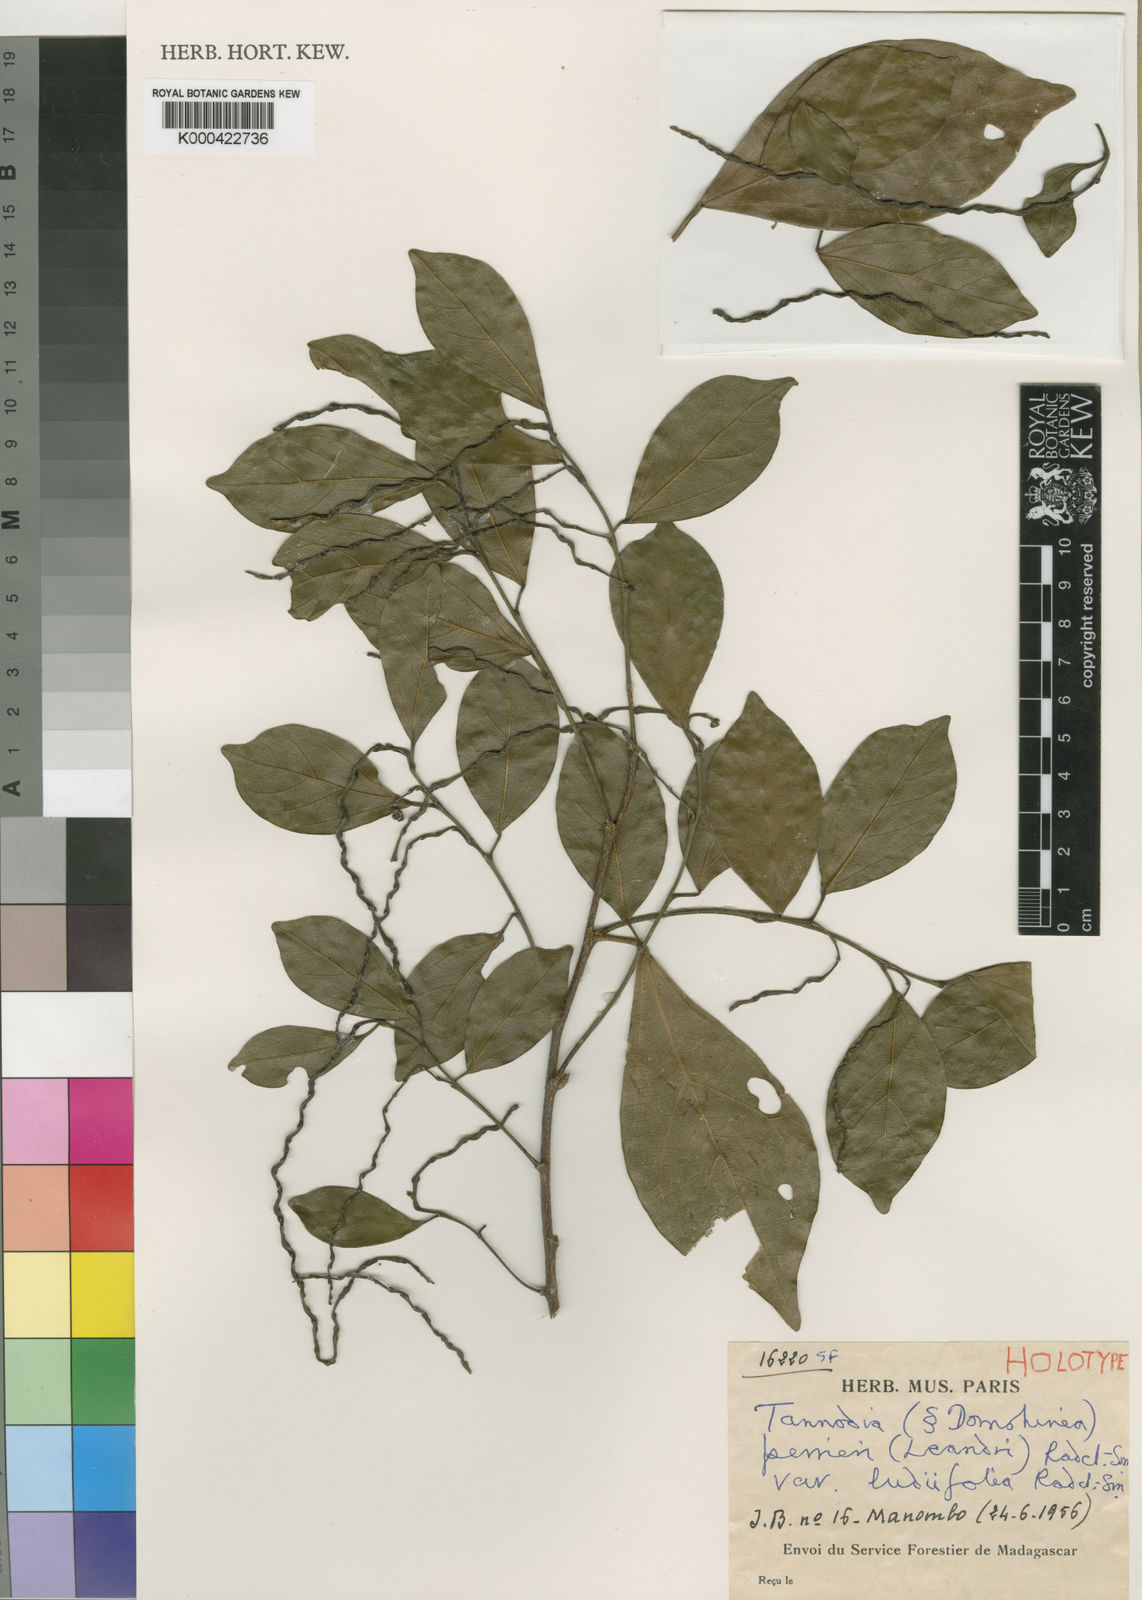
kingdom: Plantae
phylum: Tracheophyta
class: Magnoliopsida
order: Malpighiales
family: Euphorbiaceae
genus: Tannodia
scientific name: Tannodia perrieri
